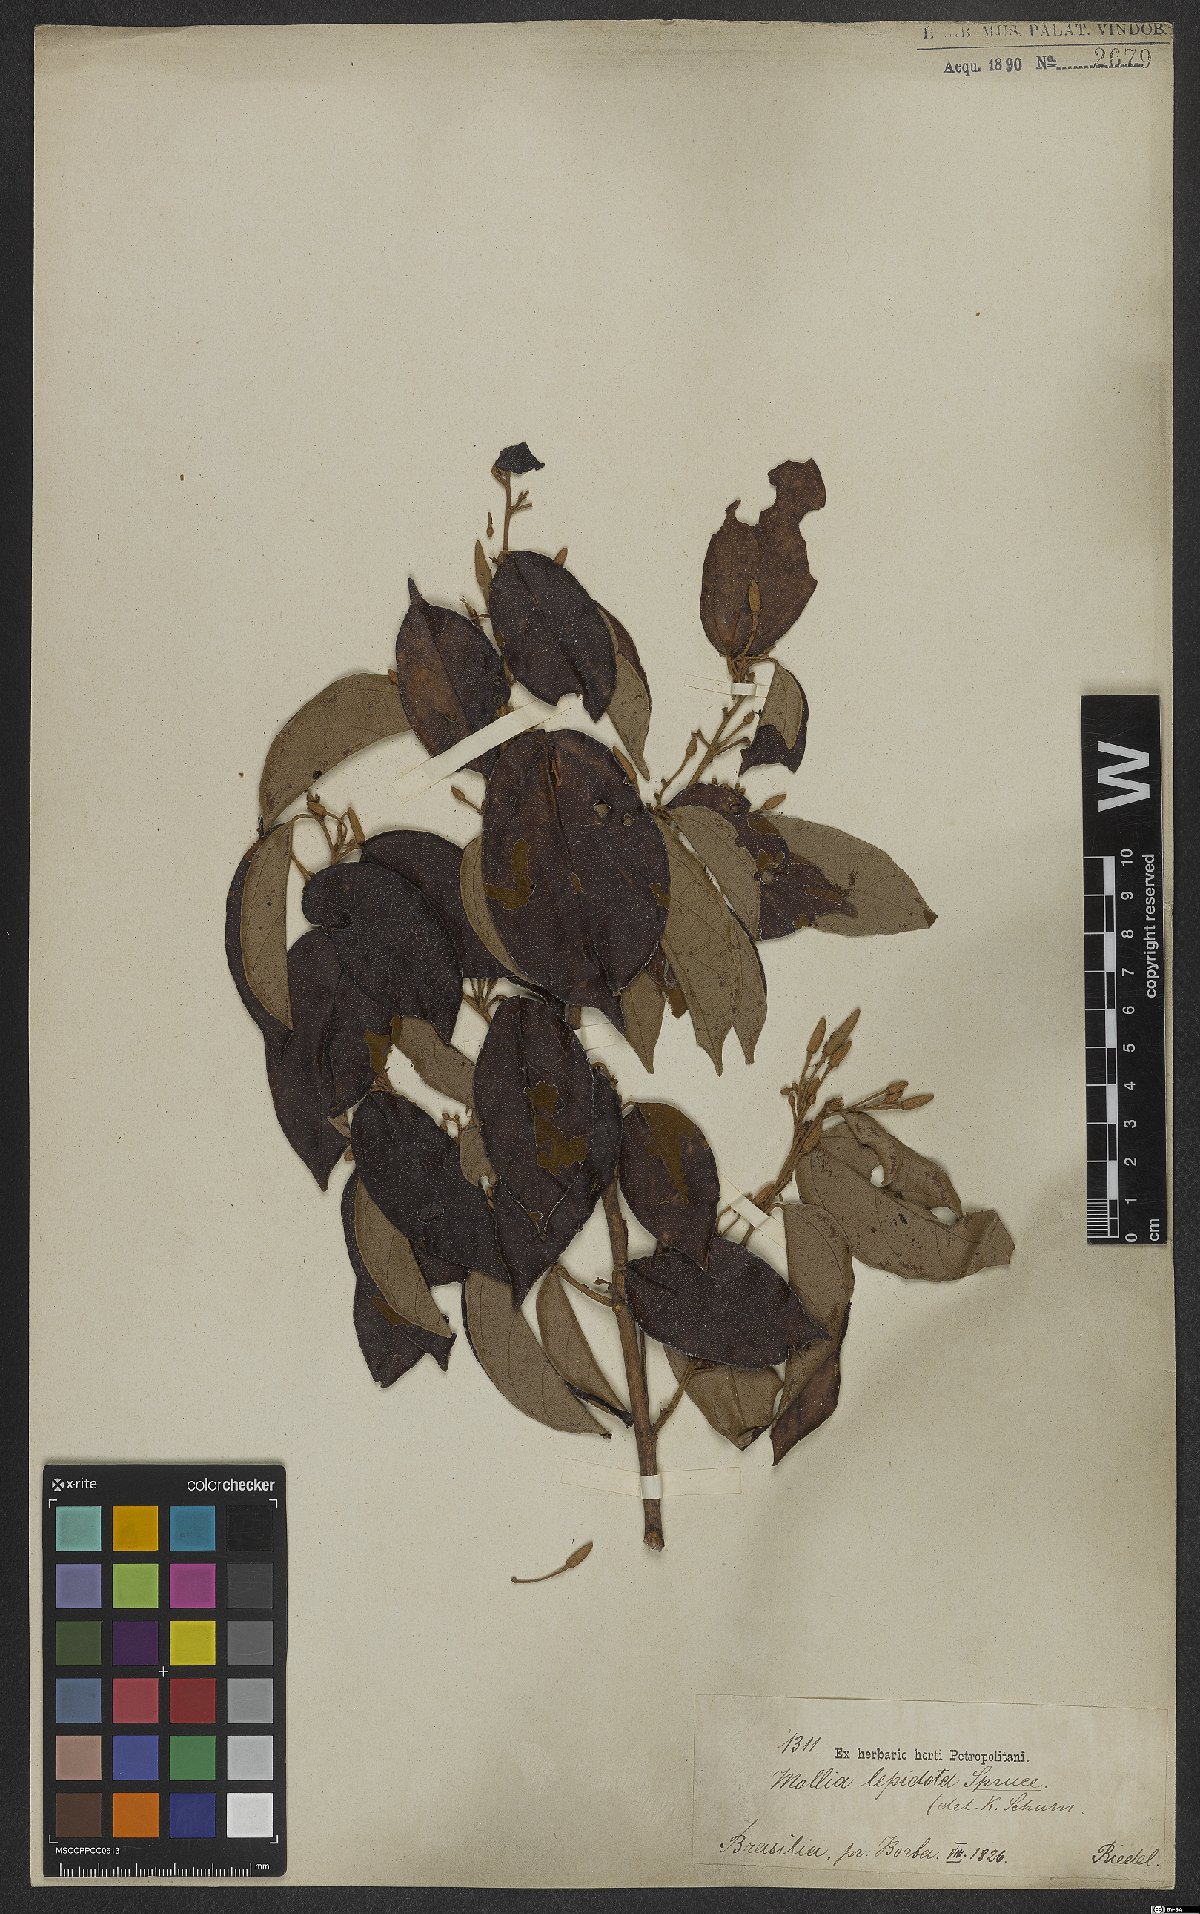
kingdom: Plantae
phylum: Tracheophyta
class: Magnoliopsida
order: Malvales
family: Malvaceae
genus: Mollia
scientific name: Mollia lepidota
